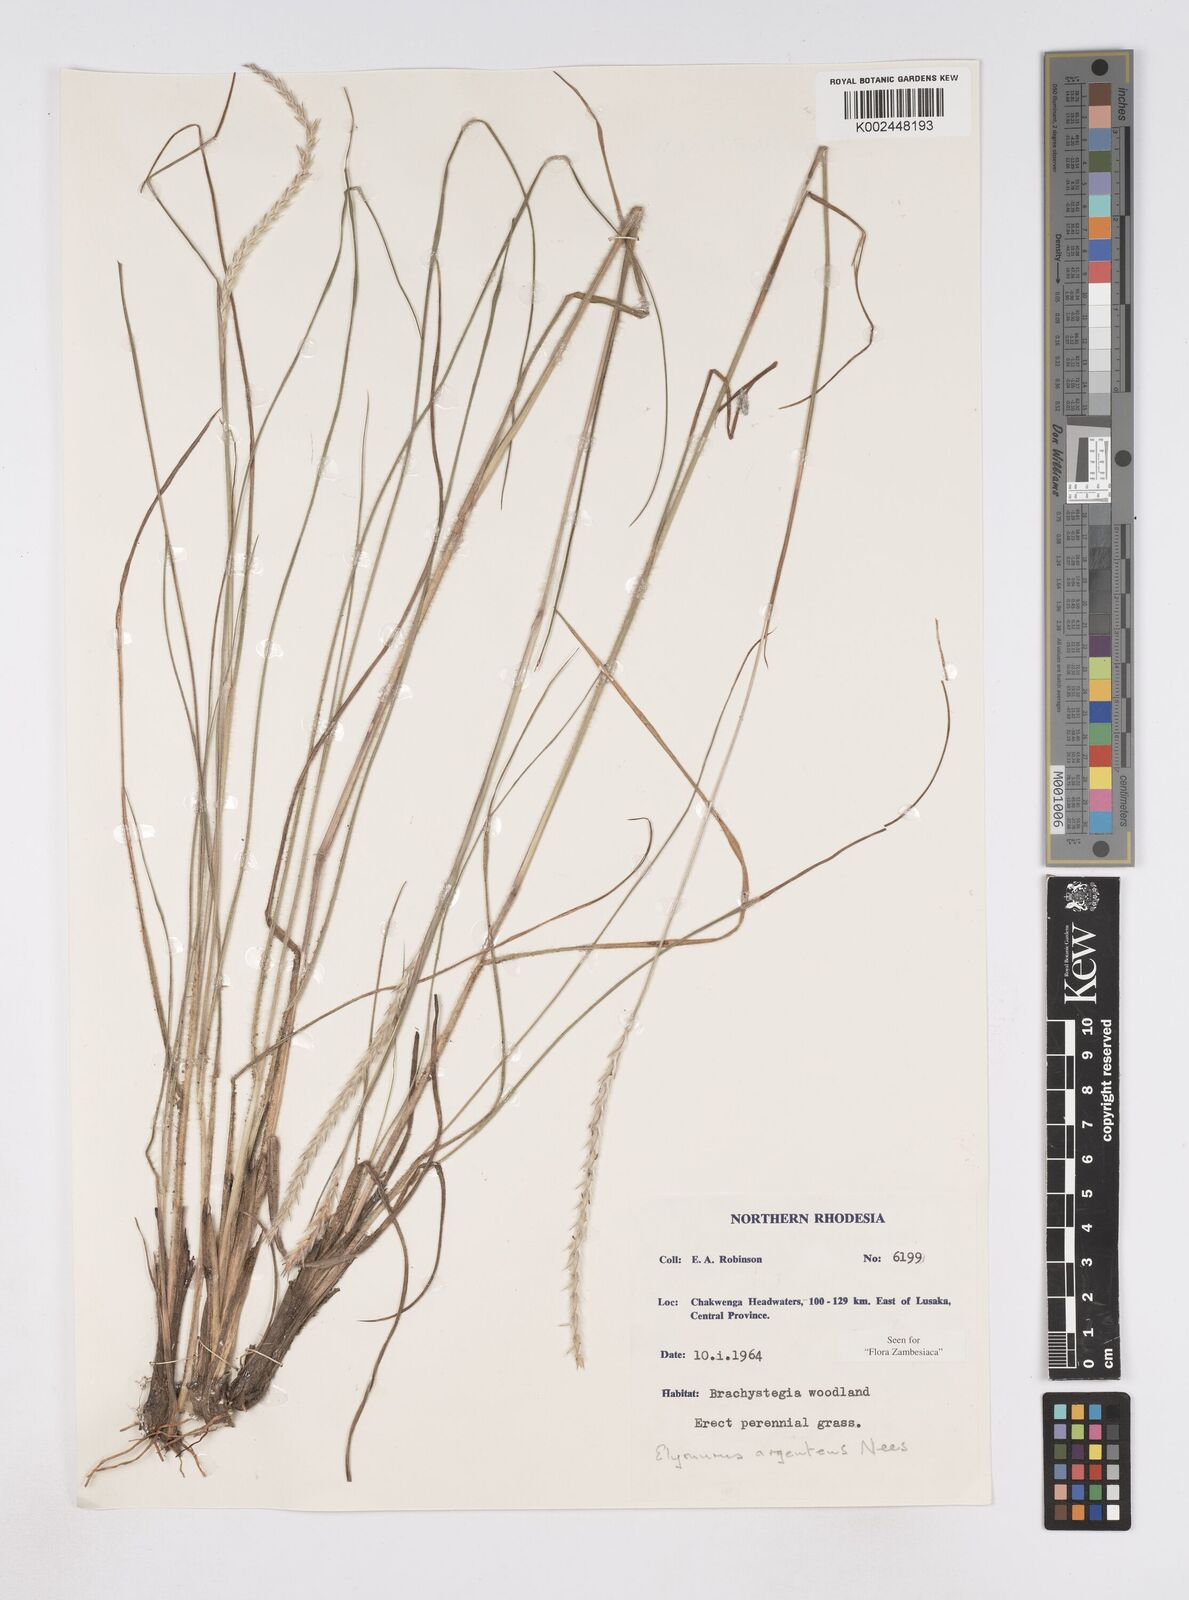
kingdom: Plantae
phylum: Tracheophyta
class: Liliopsida
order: Poales
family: Poaceae
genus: Elionurus
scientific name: Elionurus muticus
